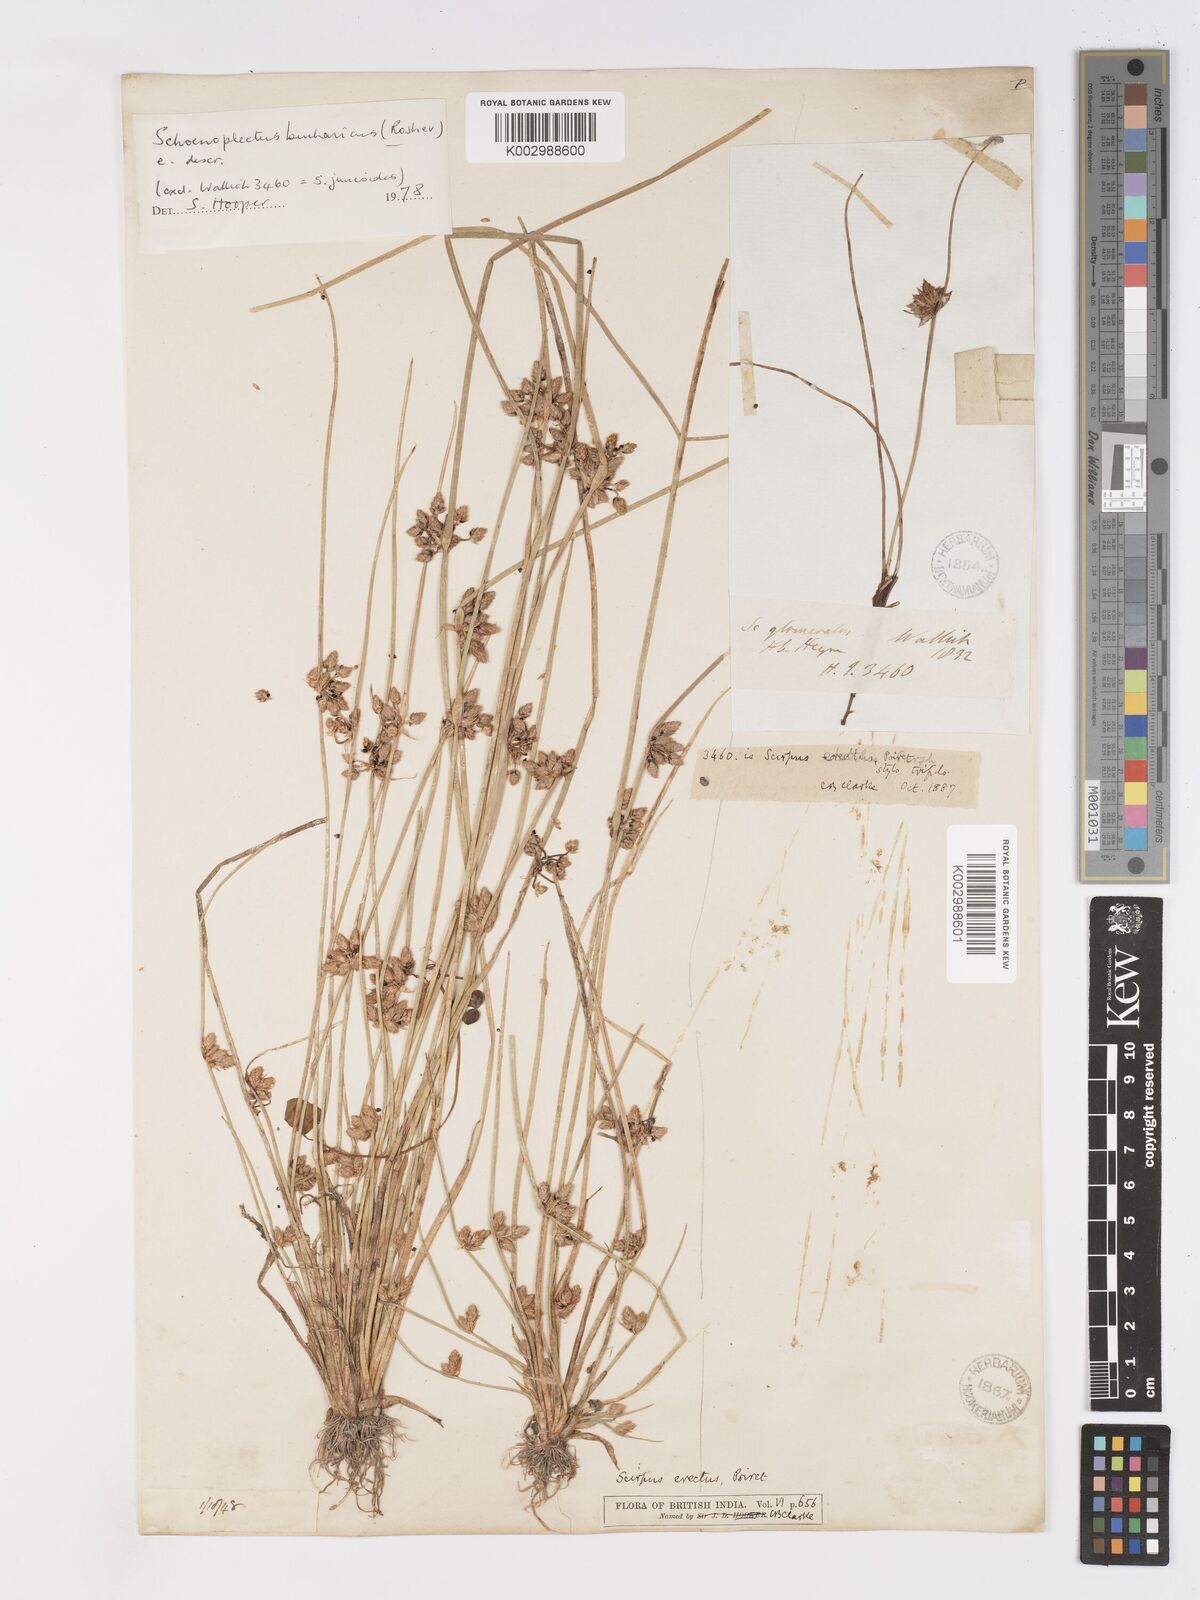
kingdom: Plantae
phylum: Tracheophyta
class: Liliopsida
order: Poales
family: Cyperaceae
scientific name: Cyperaceae
